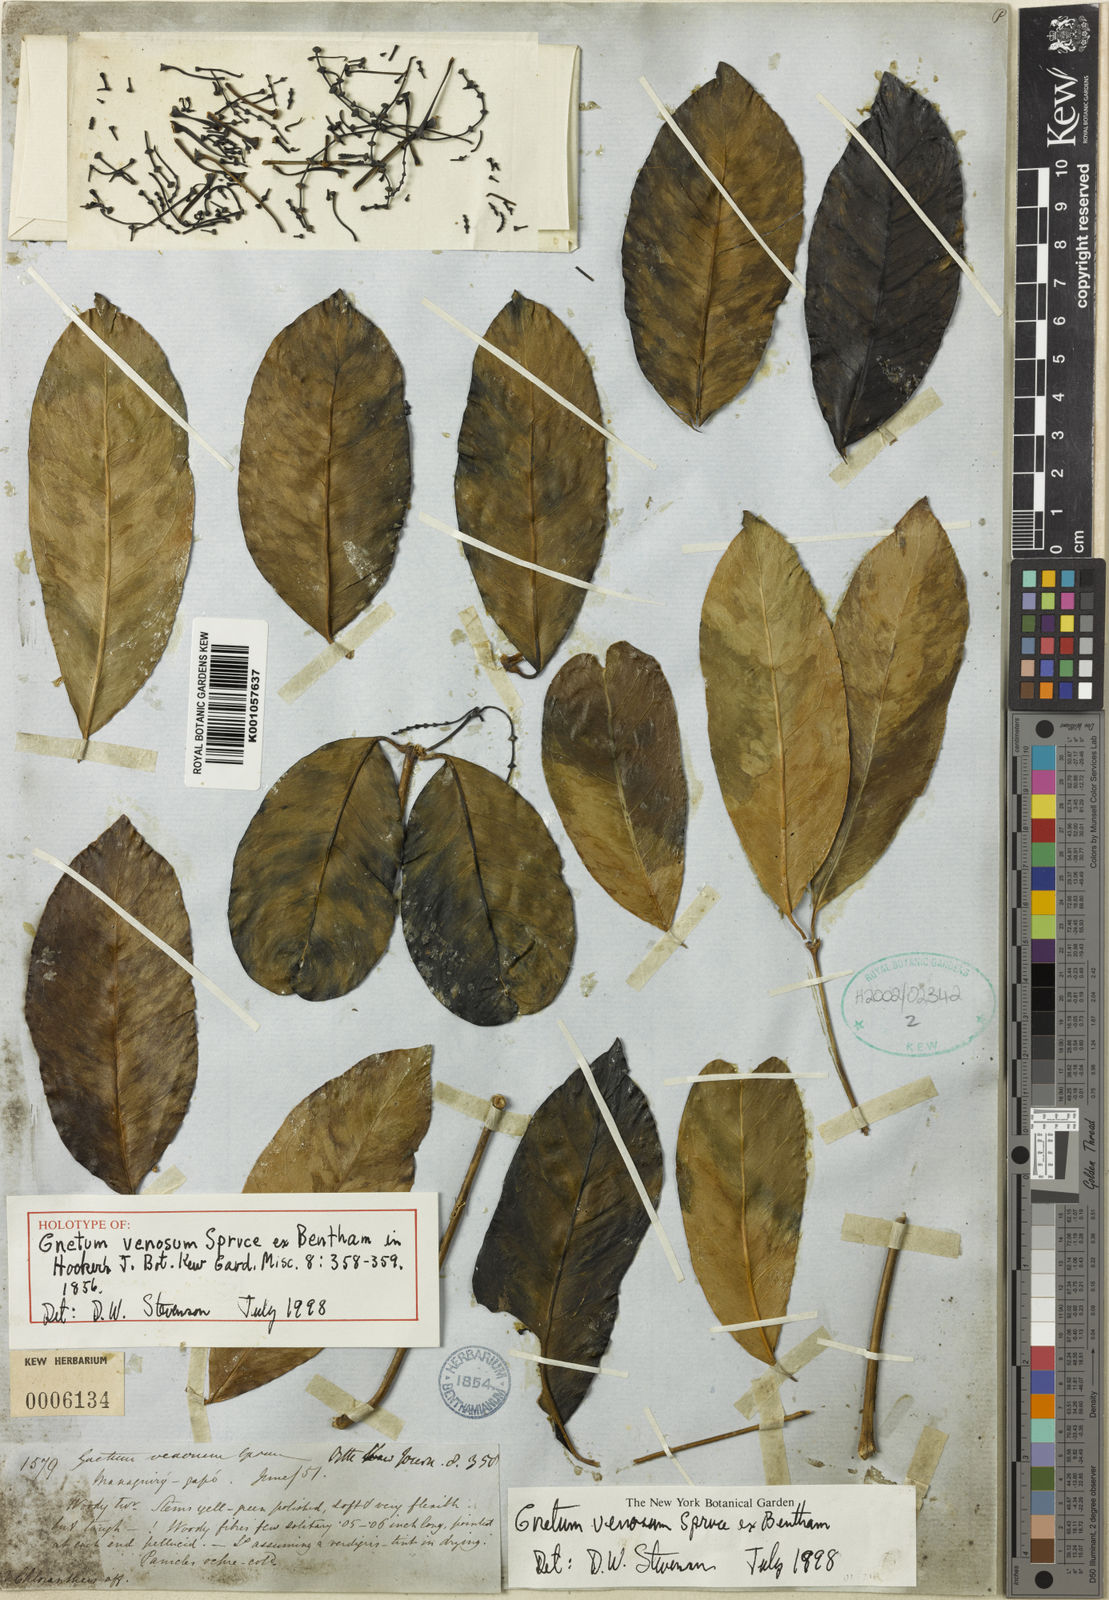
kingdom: Plantae
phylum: Tracheophyta
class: Gnetopsida
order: Gnetales
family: Gnetaceae
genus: Gnetum
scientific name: Gnetum venosum
